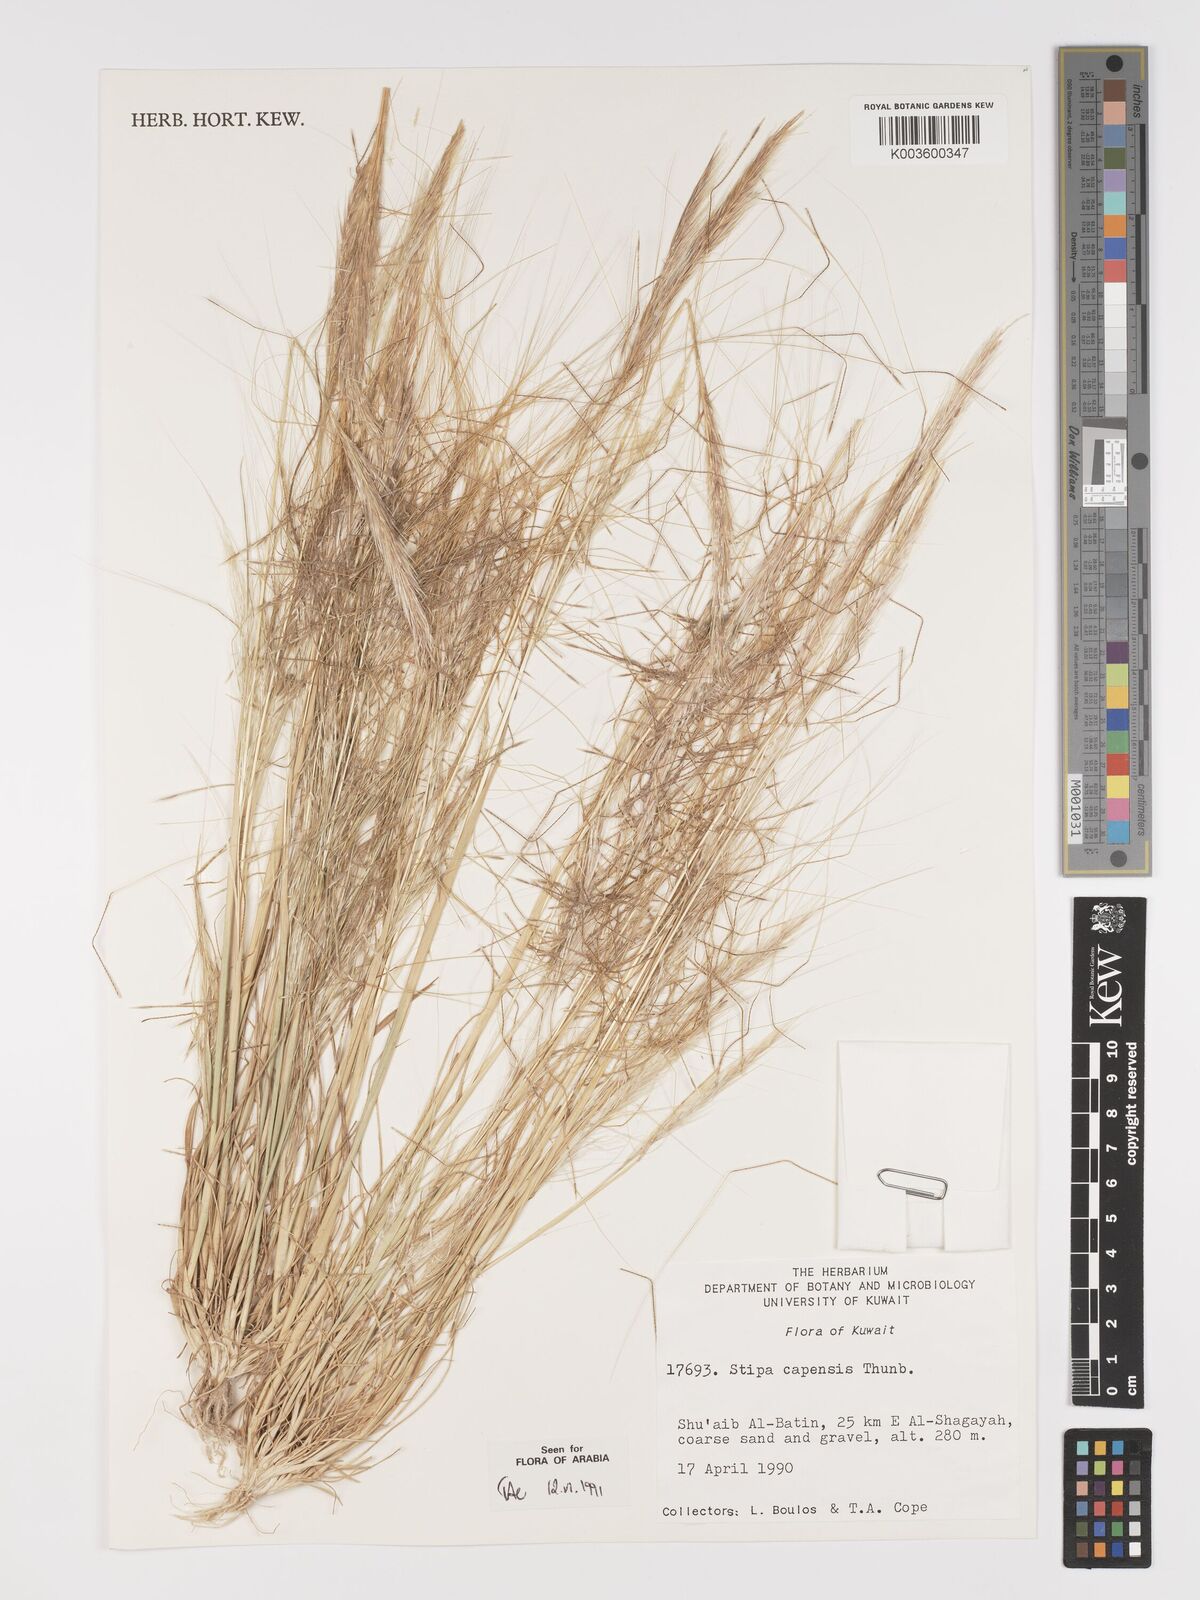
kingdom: Plantae
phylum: Tracheophyta
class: Liliopsida
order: Poales
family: Poaceae
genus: Stipellula
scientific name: Stipellula capensis
